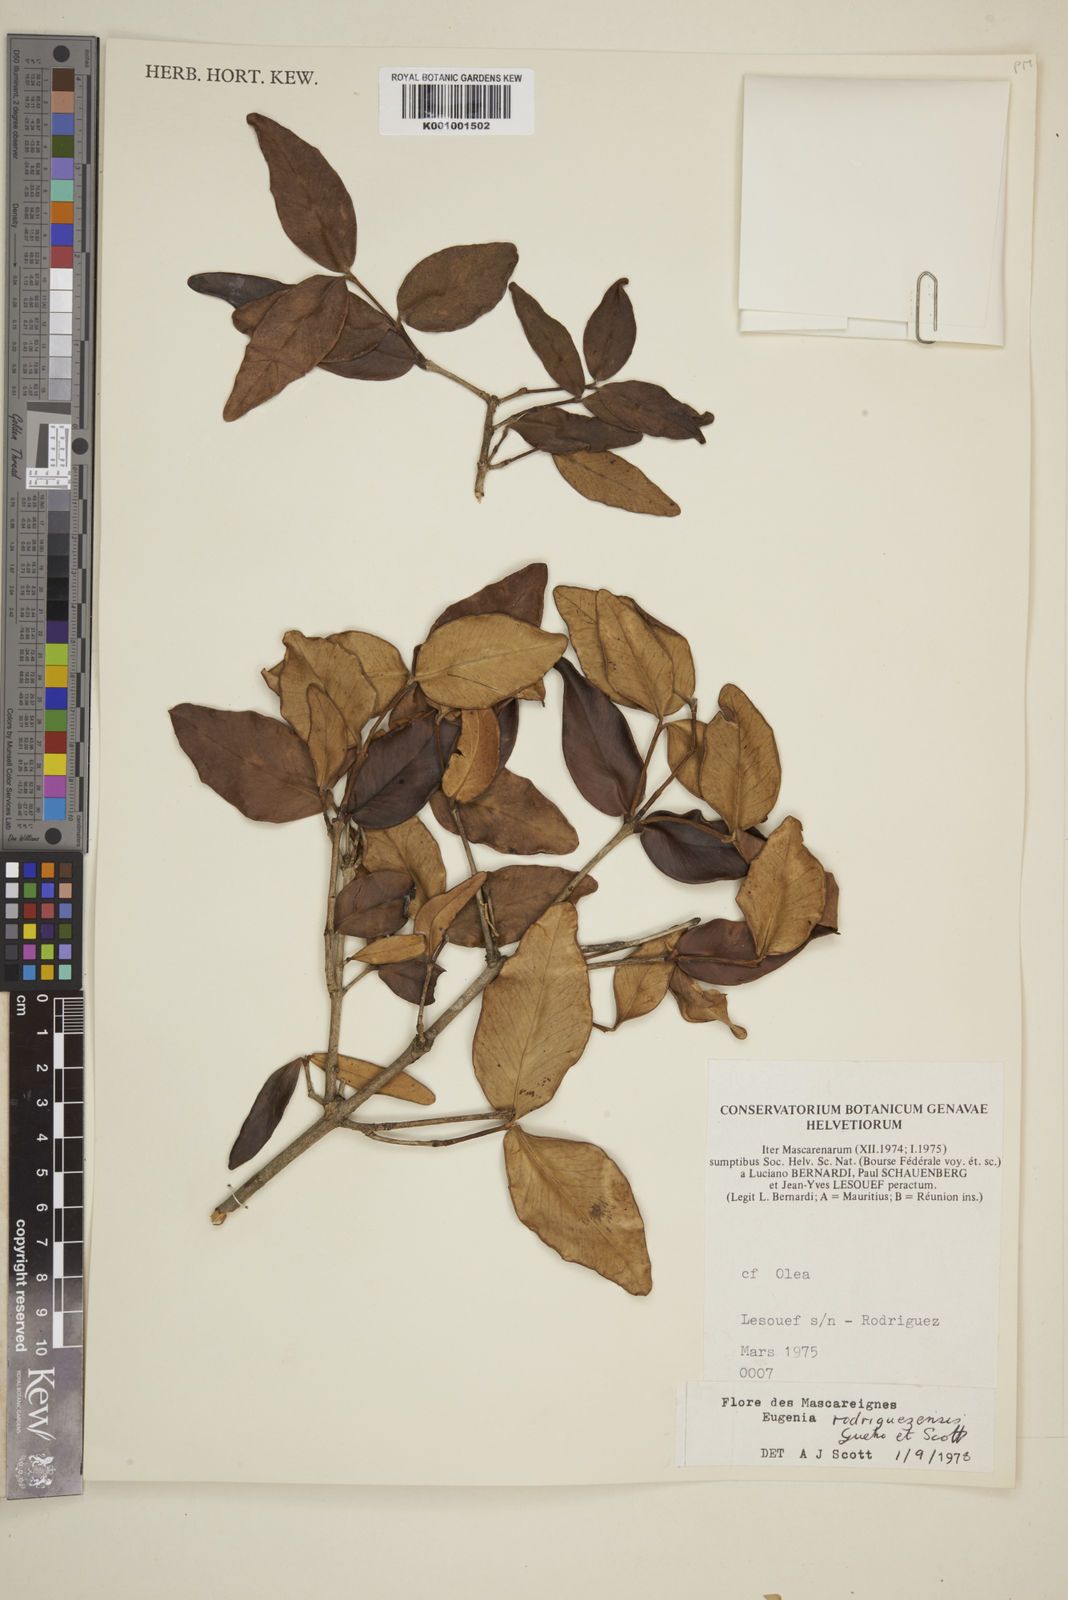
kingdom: Plantae
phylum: Tracheophyta
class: Magnoliopsida
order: Myrtales
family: Myrtaceae
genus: Eugenia
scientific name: Eugenia
